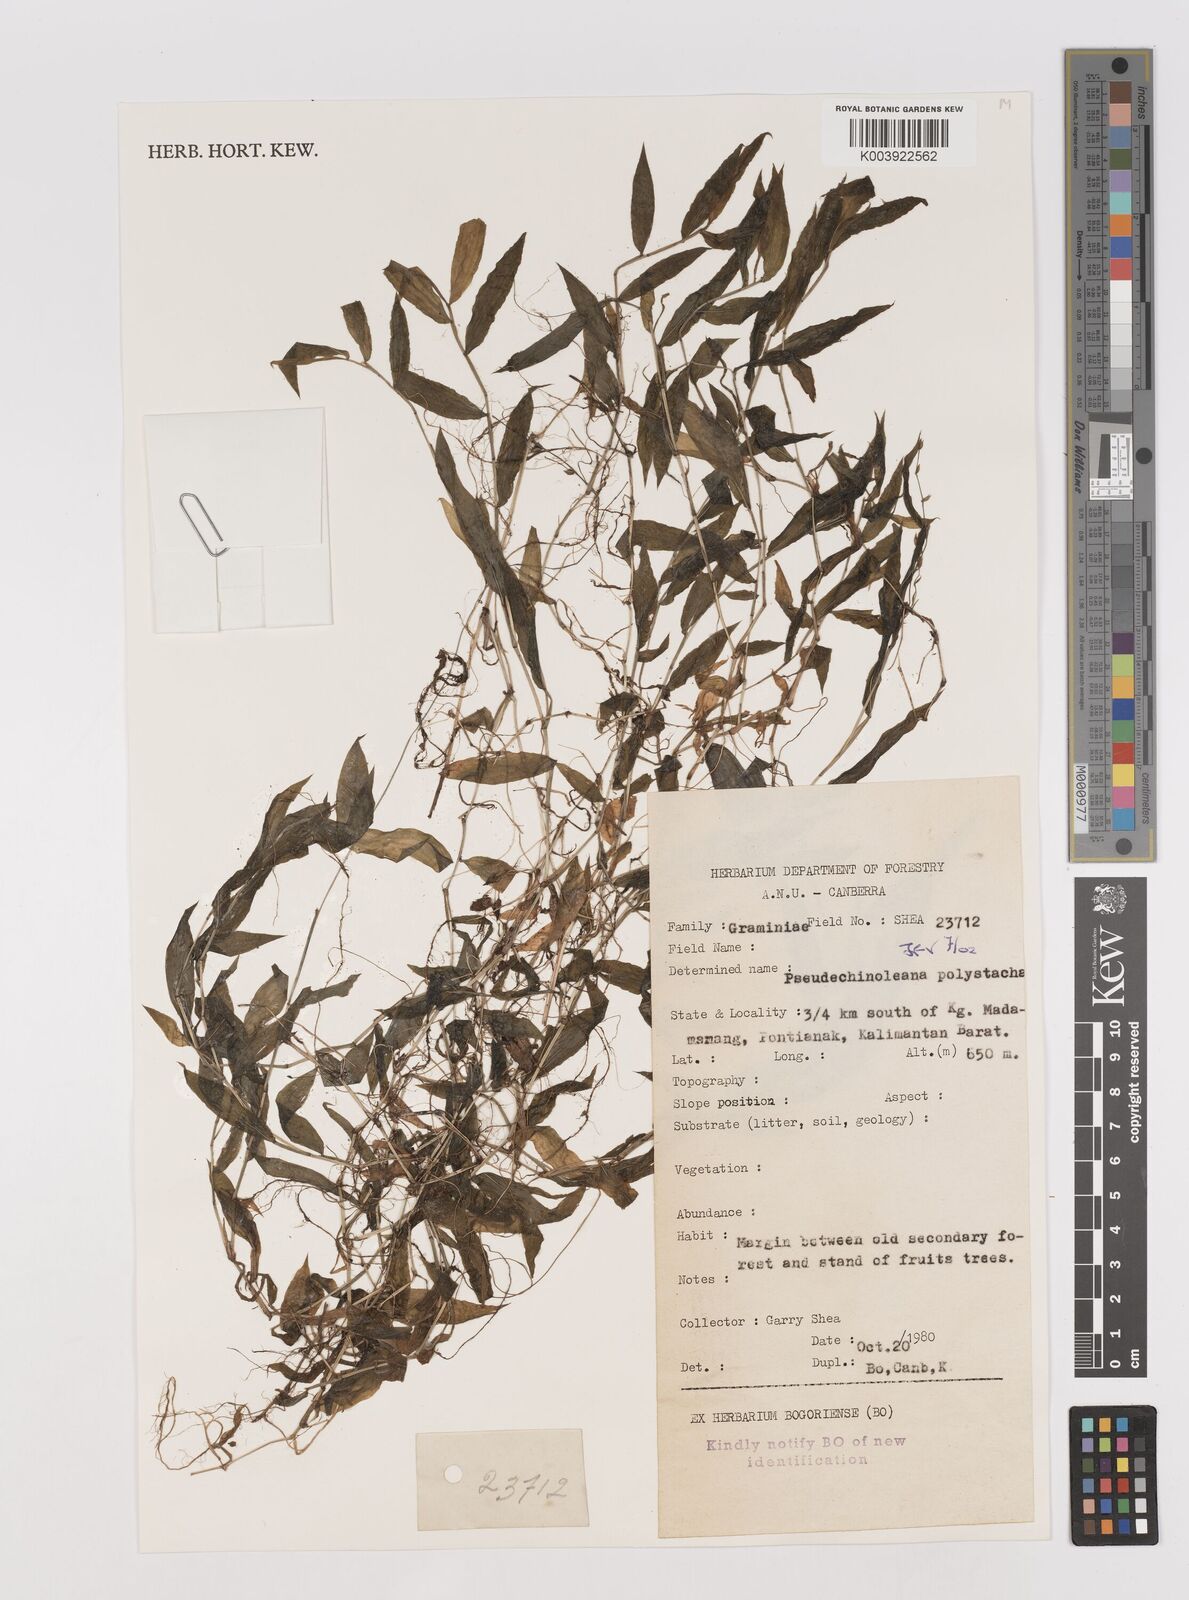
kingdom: Plantae
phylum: Tracheophyta
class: Liliopsida
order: Poales
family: Poaceae
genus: Pseudechinolaena
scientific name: Pseudechinolaena polystachya
